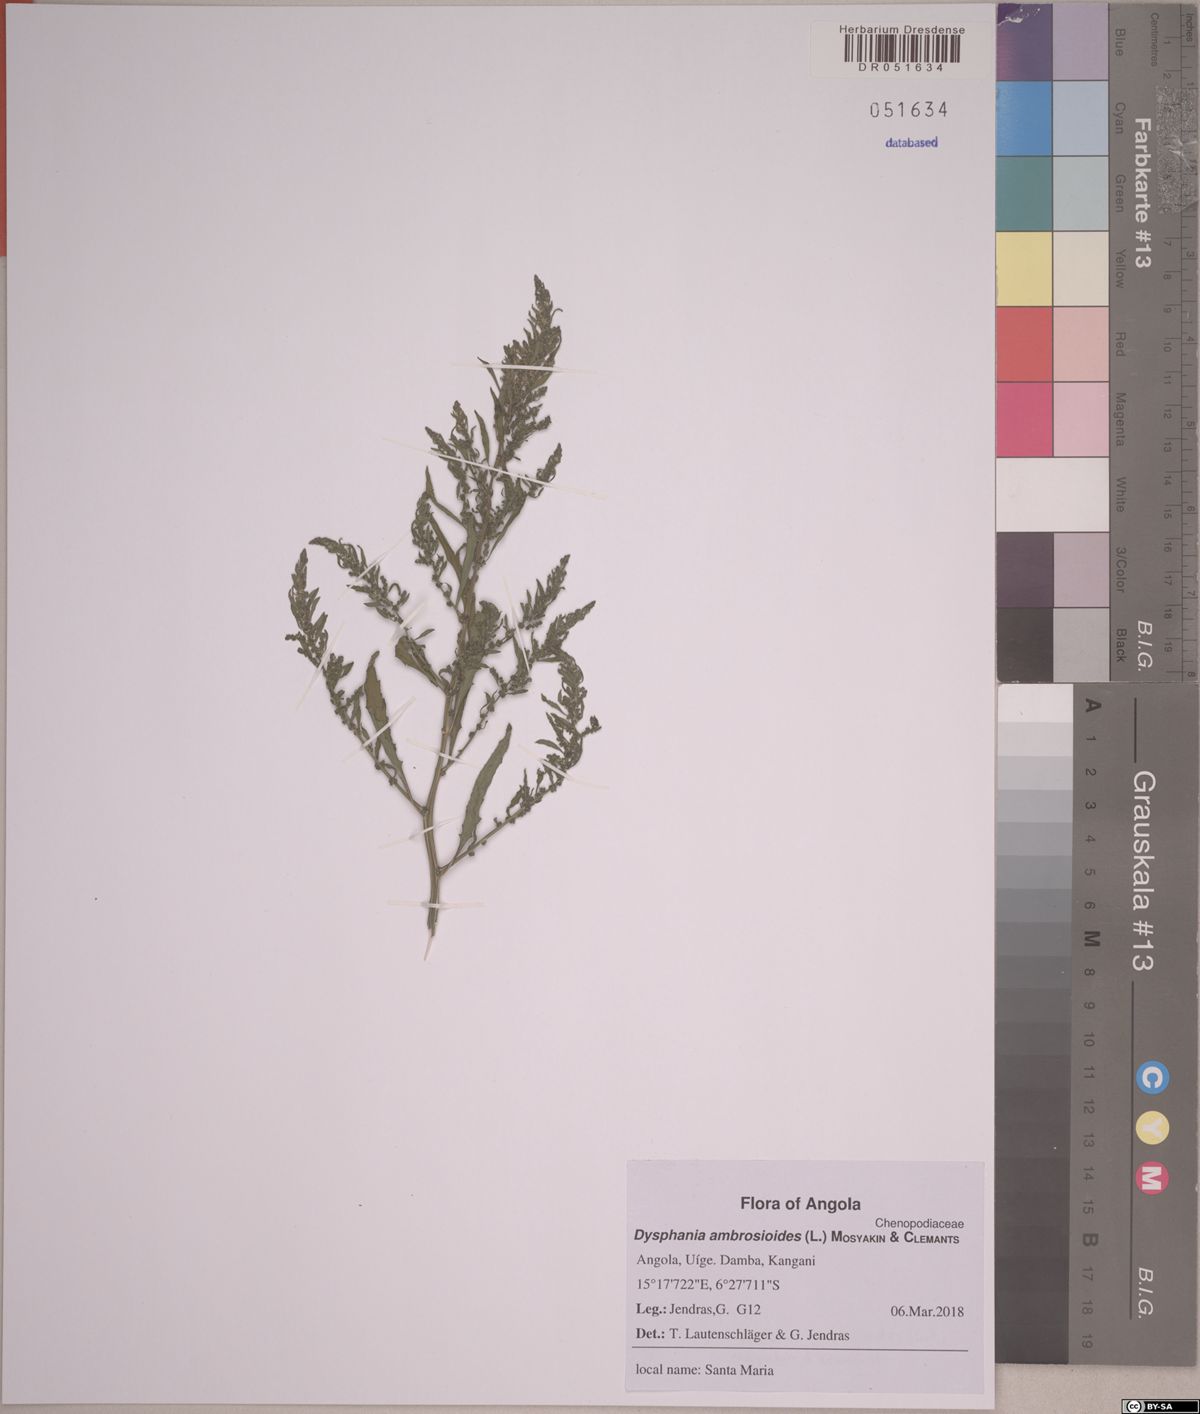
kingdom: Plantae
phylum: Tracheophyta
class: Magnoliopsida
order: Caryophyllales
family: Amaranthaceae
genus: Dysphania
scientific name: Dysphania ambrosioides
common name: Wormseed
